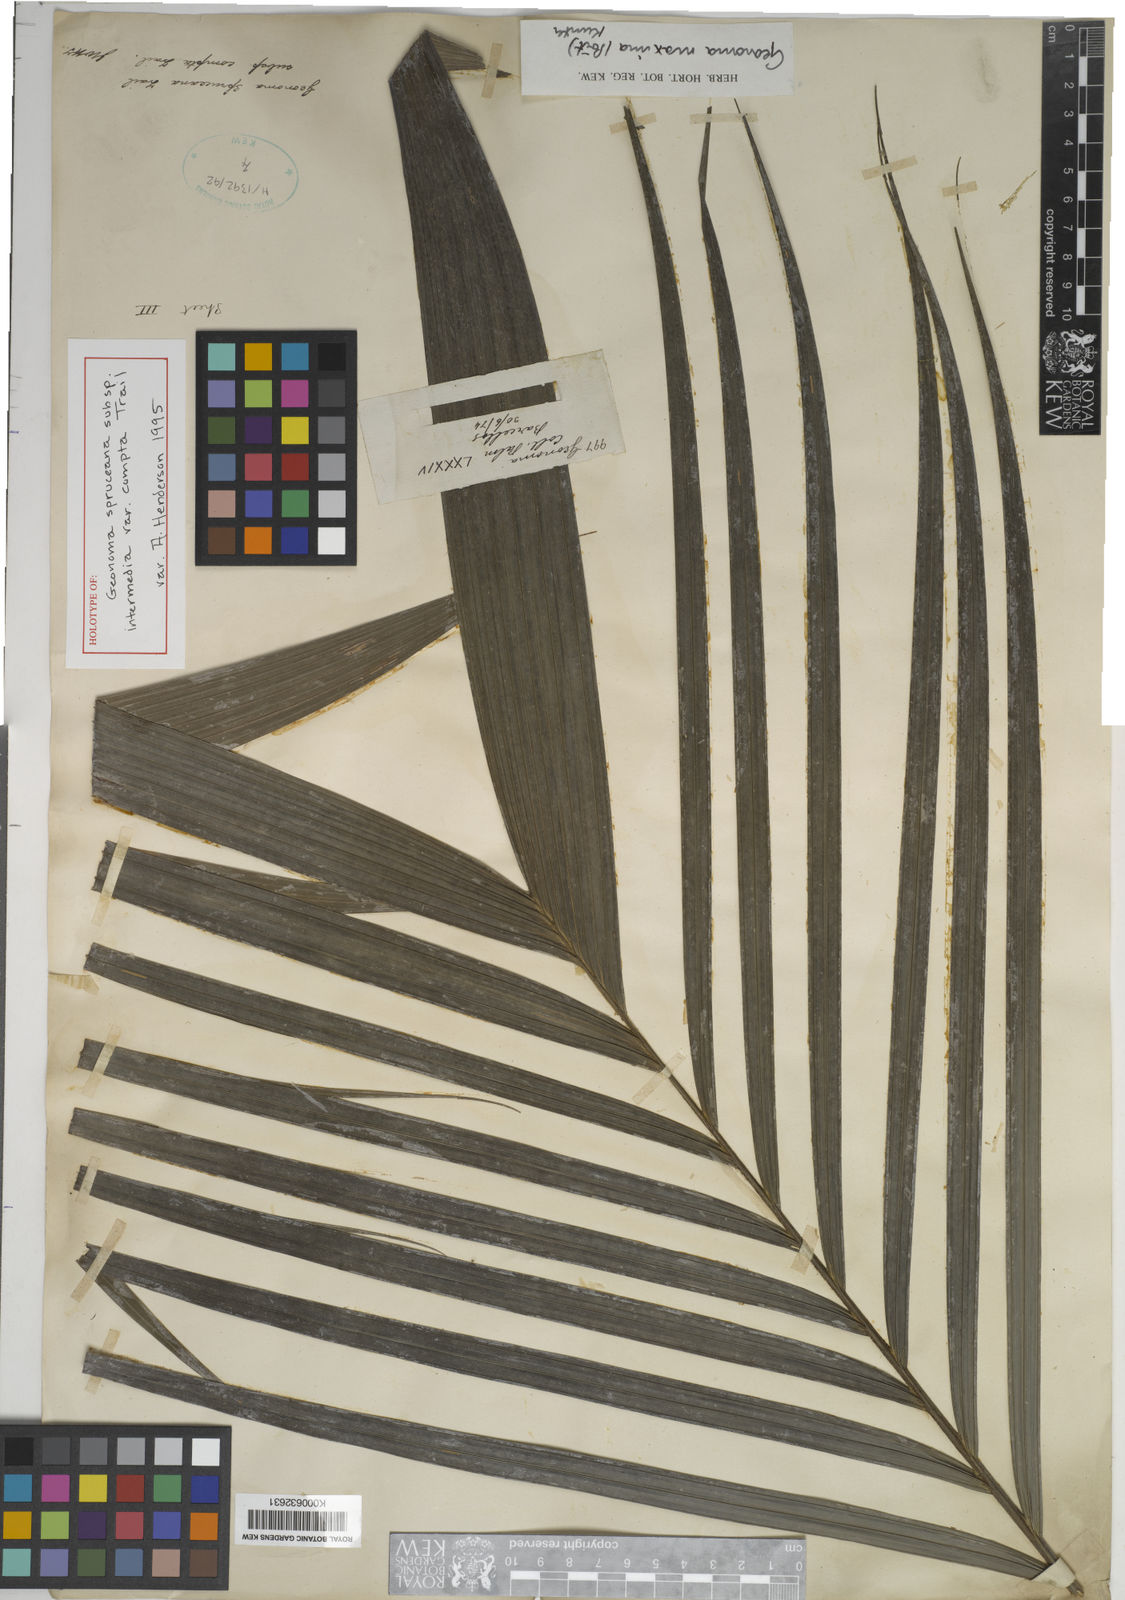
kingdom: Plantae
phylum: Tracheophyta
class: Liliopsida
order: Arecales
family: Arecaceae
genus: Geonoma
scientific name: Geonoma maxima
